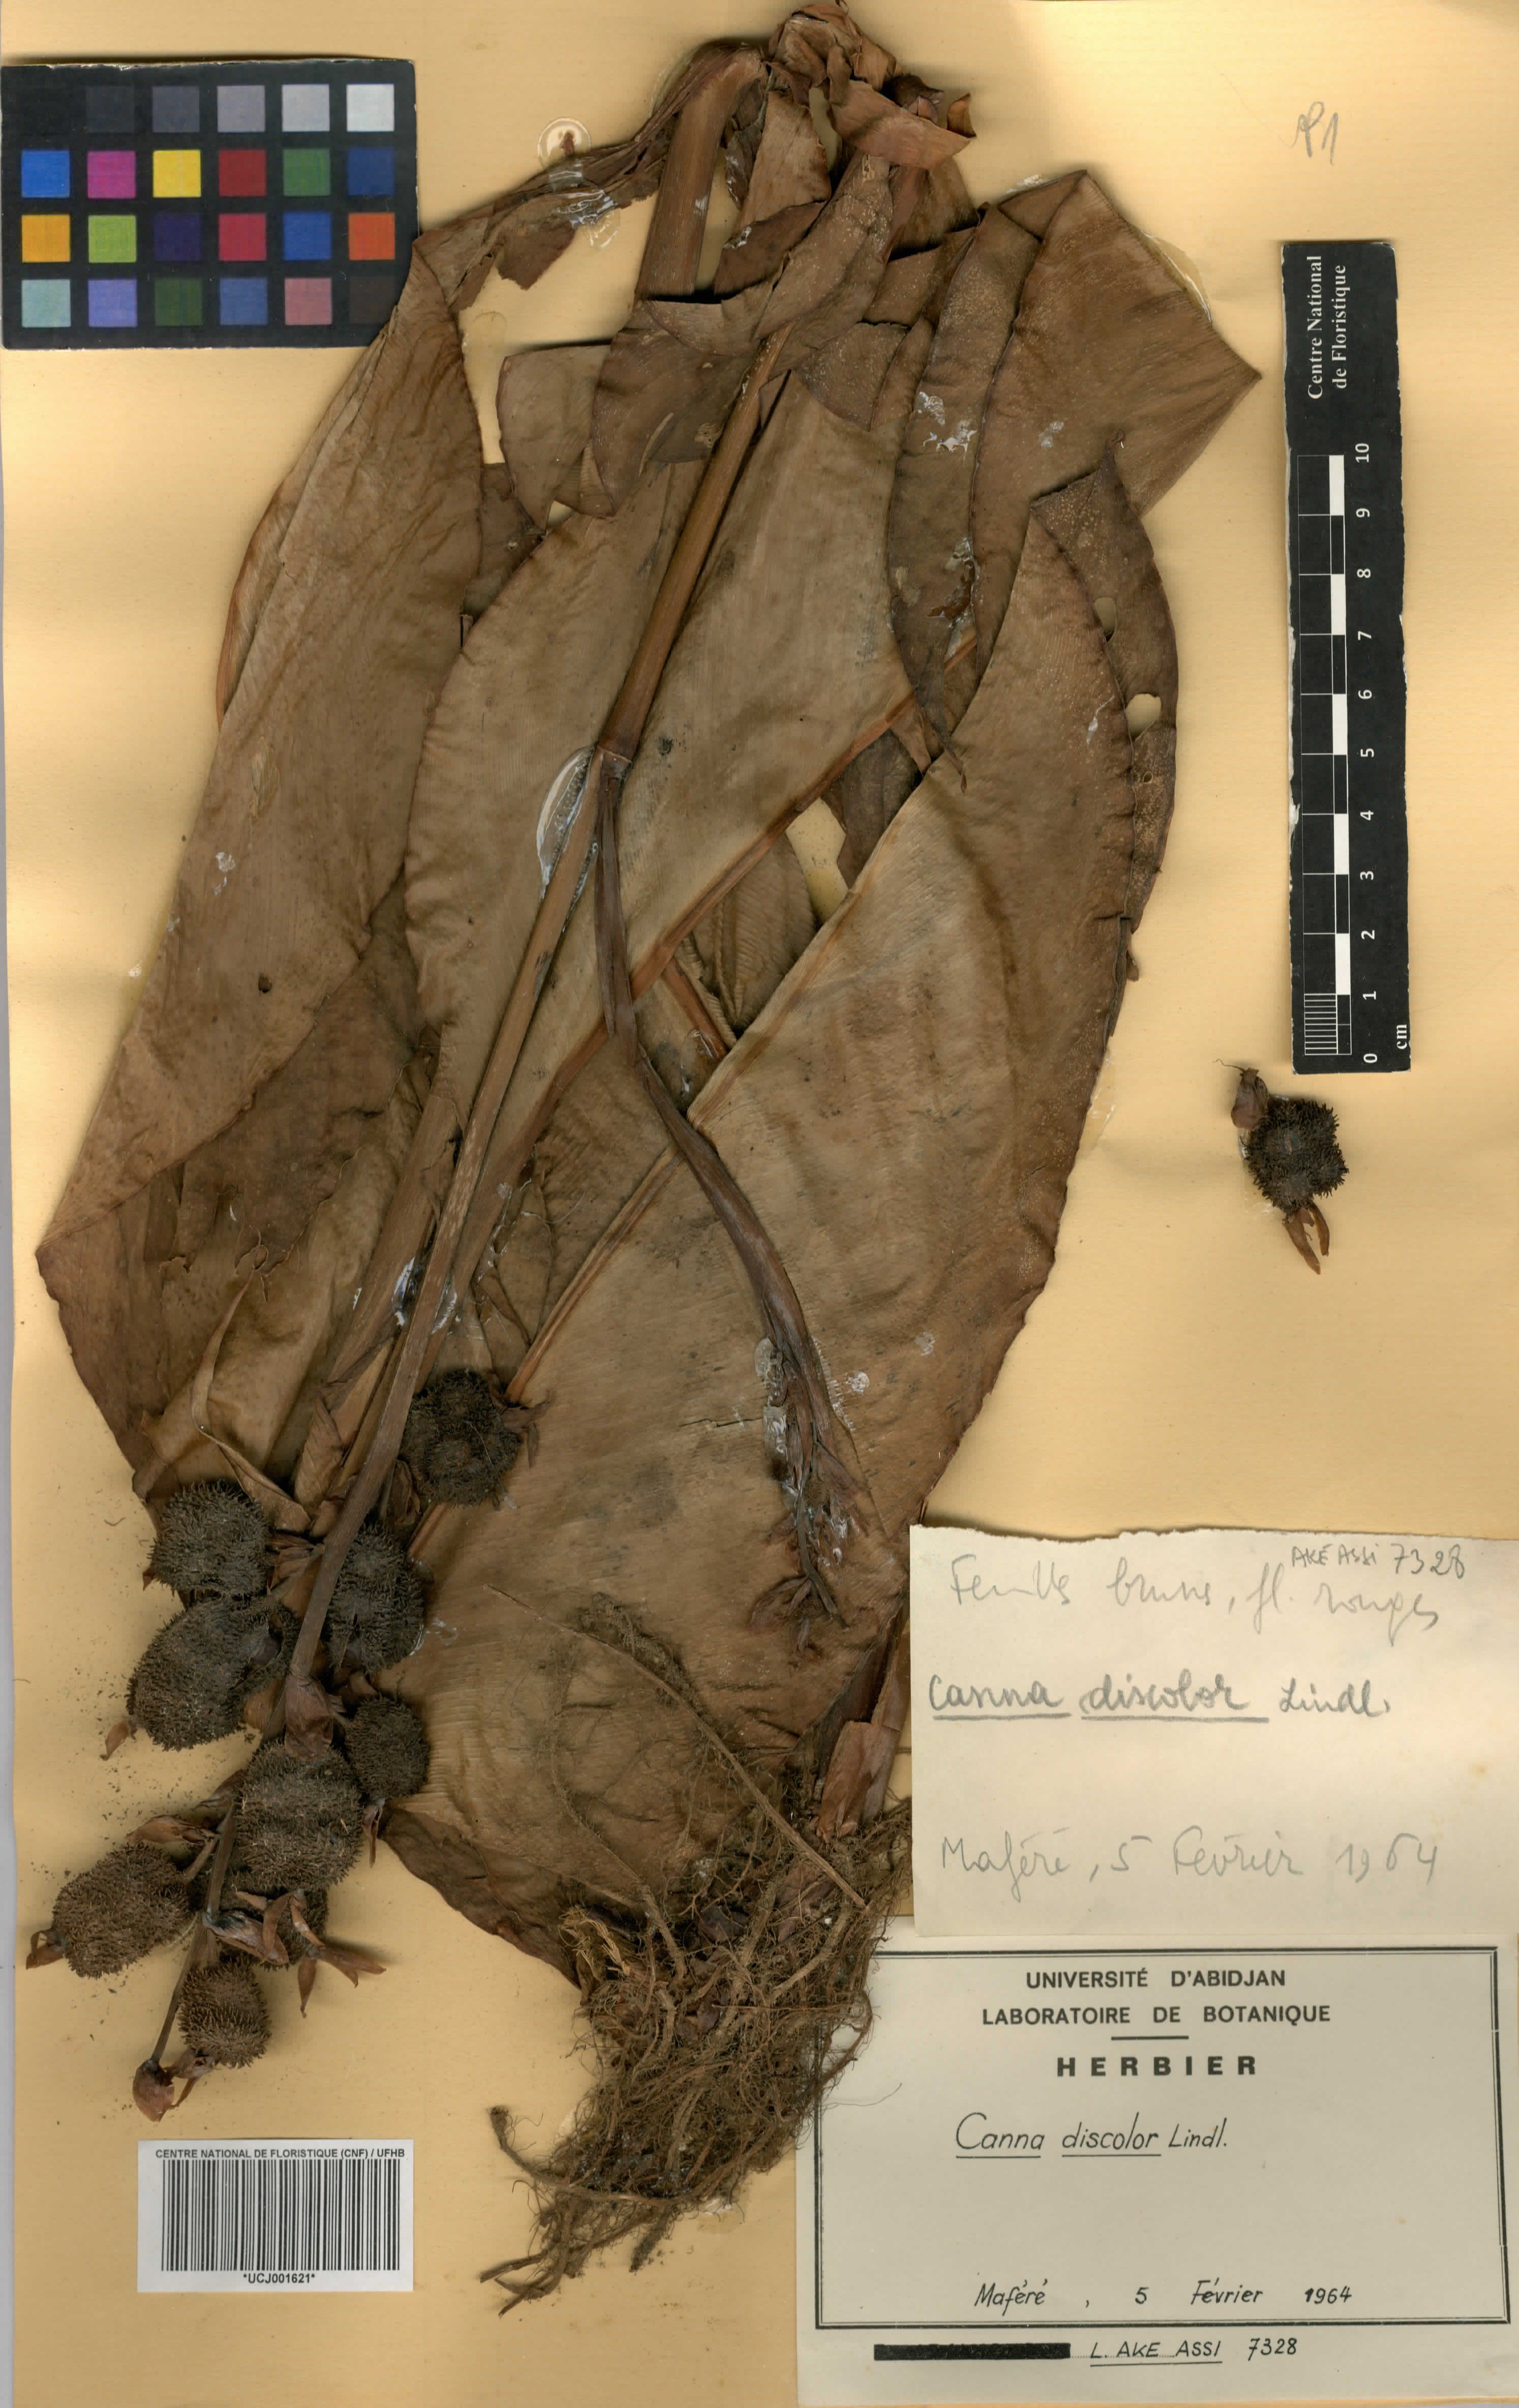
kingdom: Plantae
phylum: Tracheophyta
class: Liliopsida
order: Zingiberales
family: Cannaceae
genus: Canna
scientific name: Canna indica
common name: Indian shot
